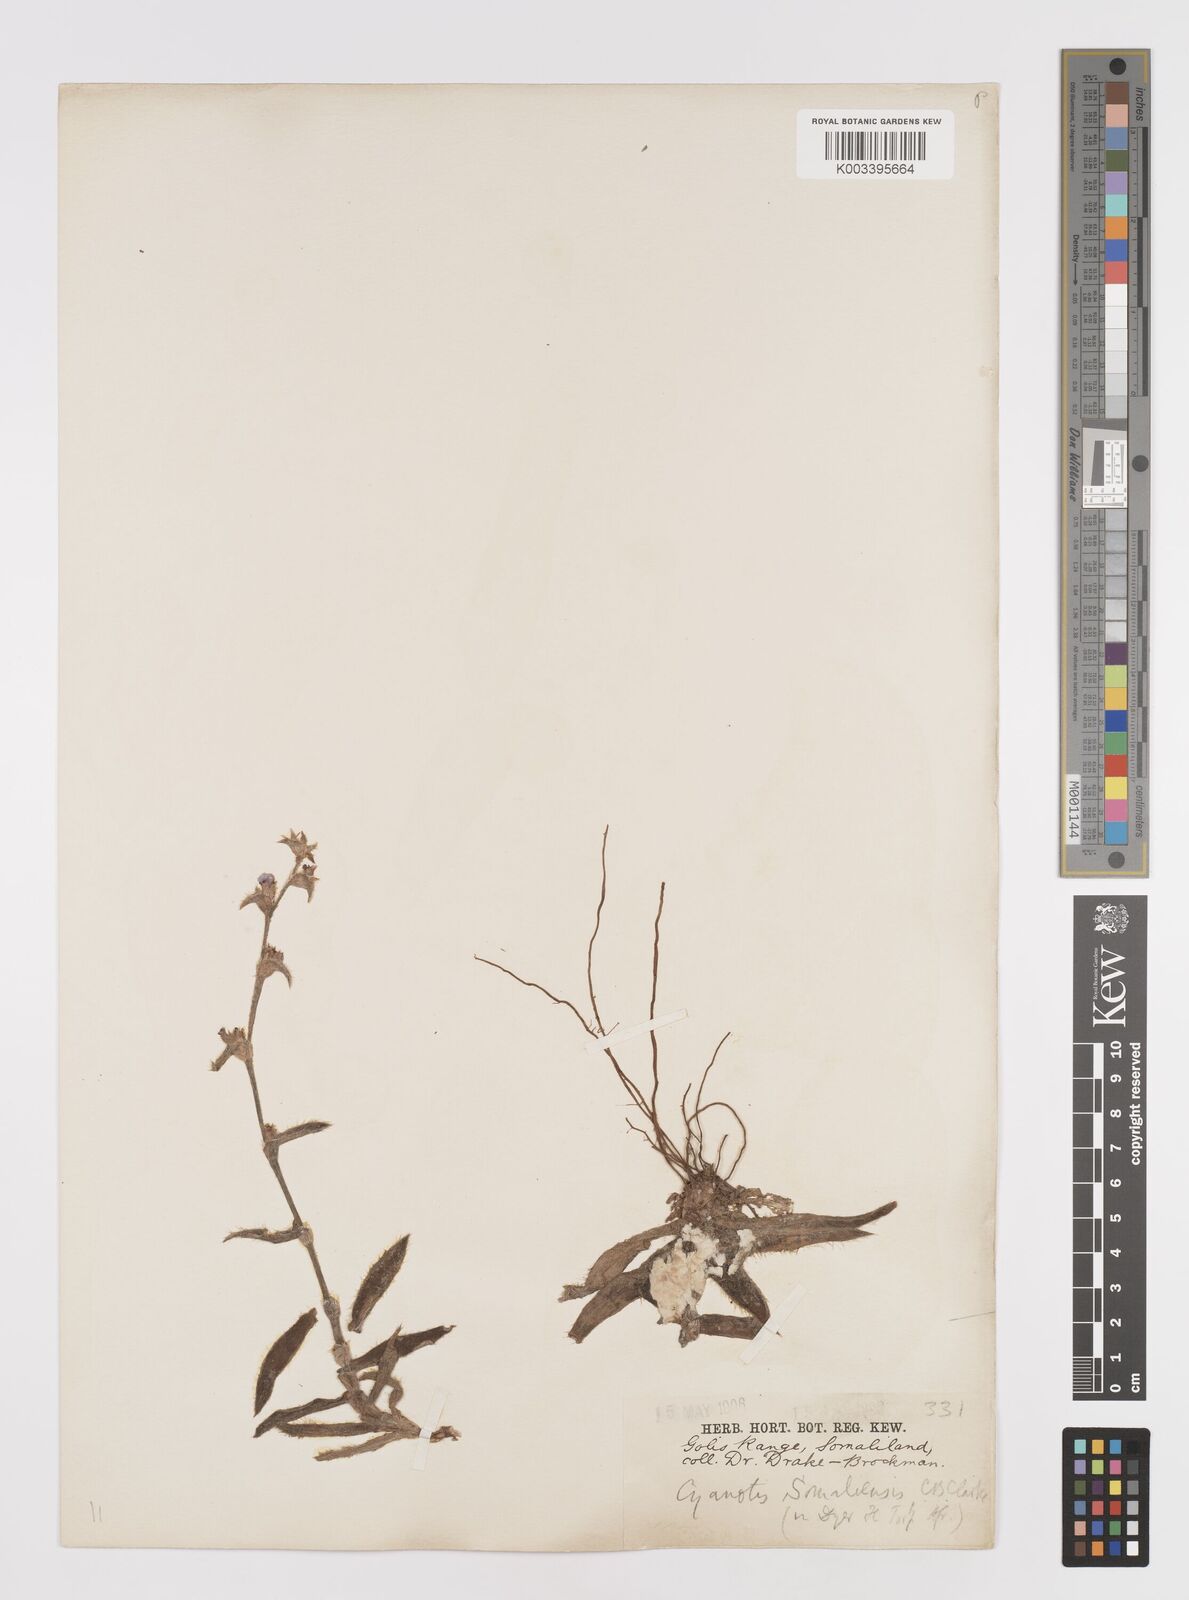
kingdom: Plantae
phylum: Tracheophyta
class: Liliopsida
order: Commelinales
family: Commelinaceae
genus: Cyanotis
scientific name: Cyanotis somaliensis
